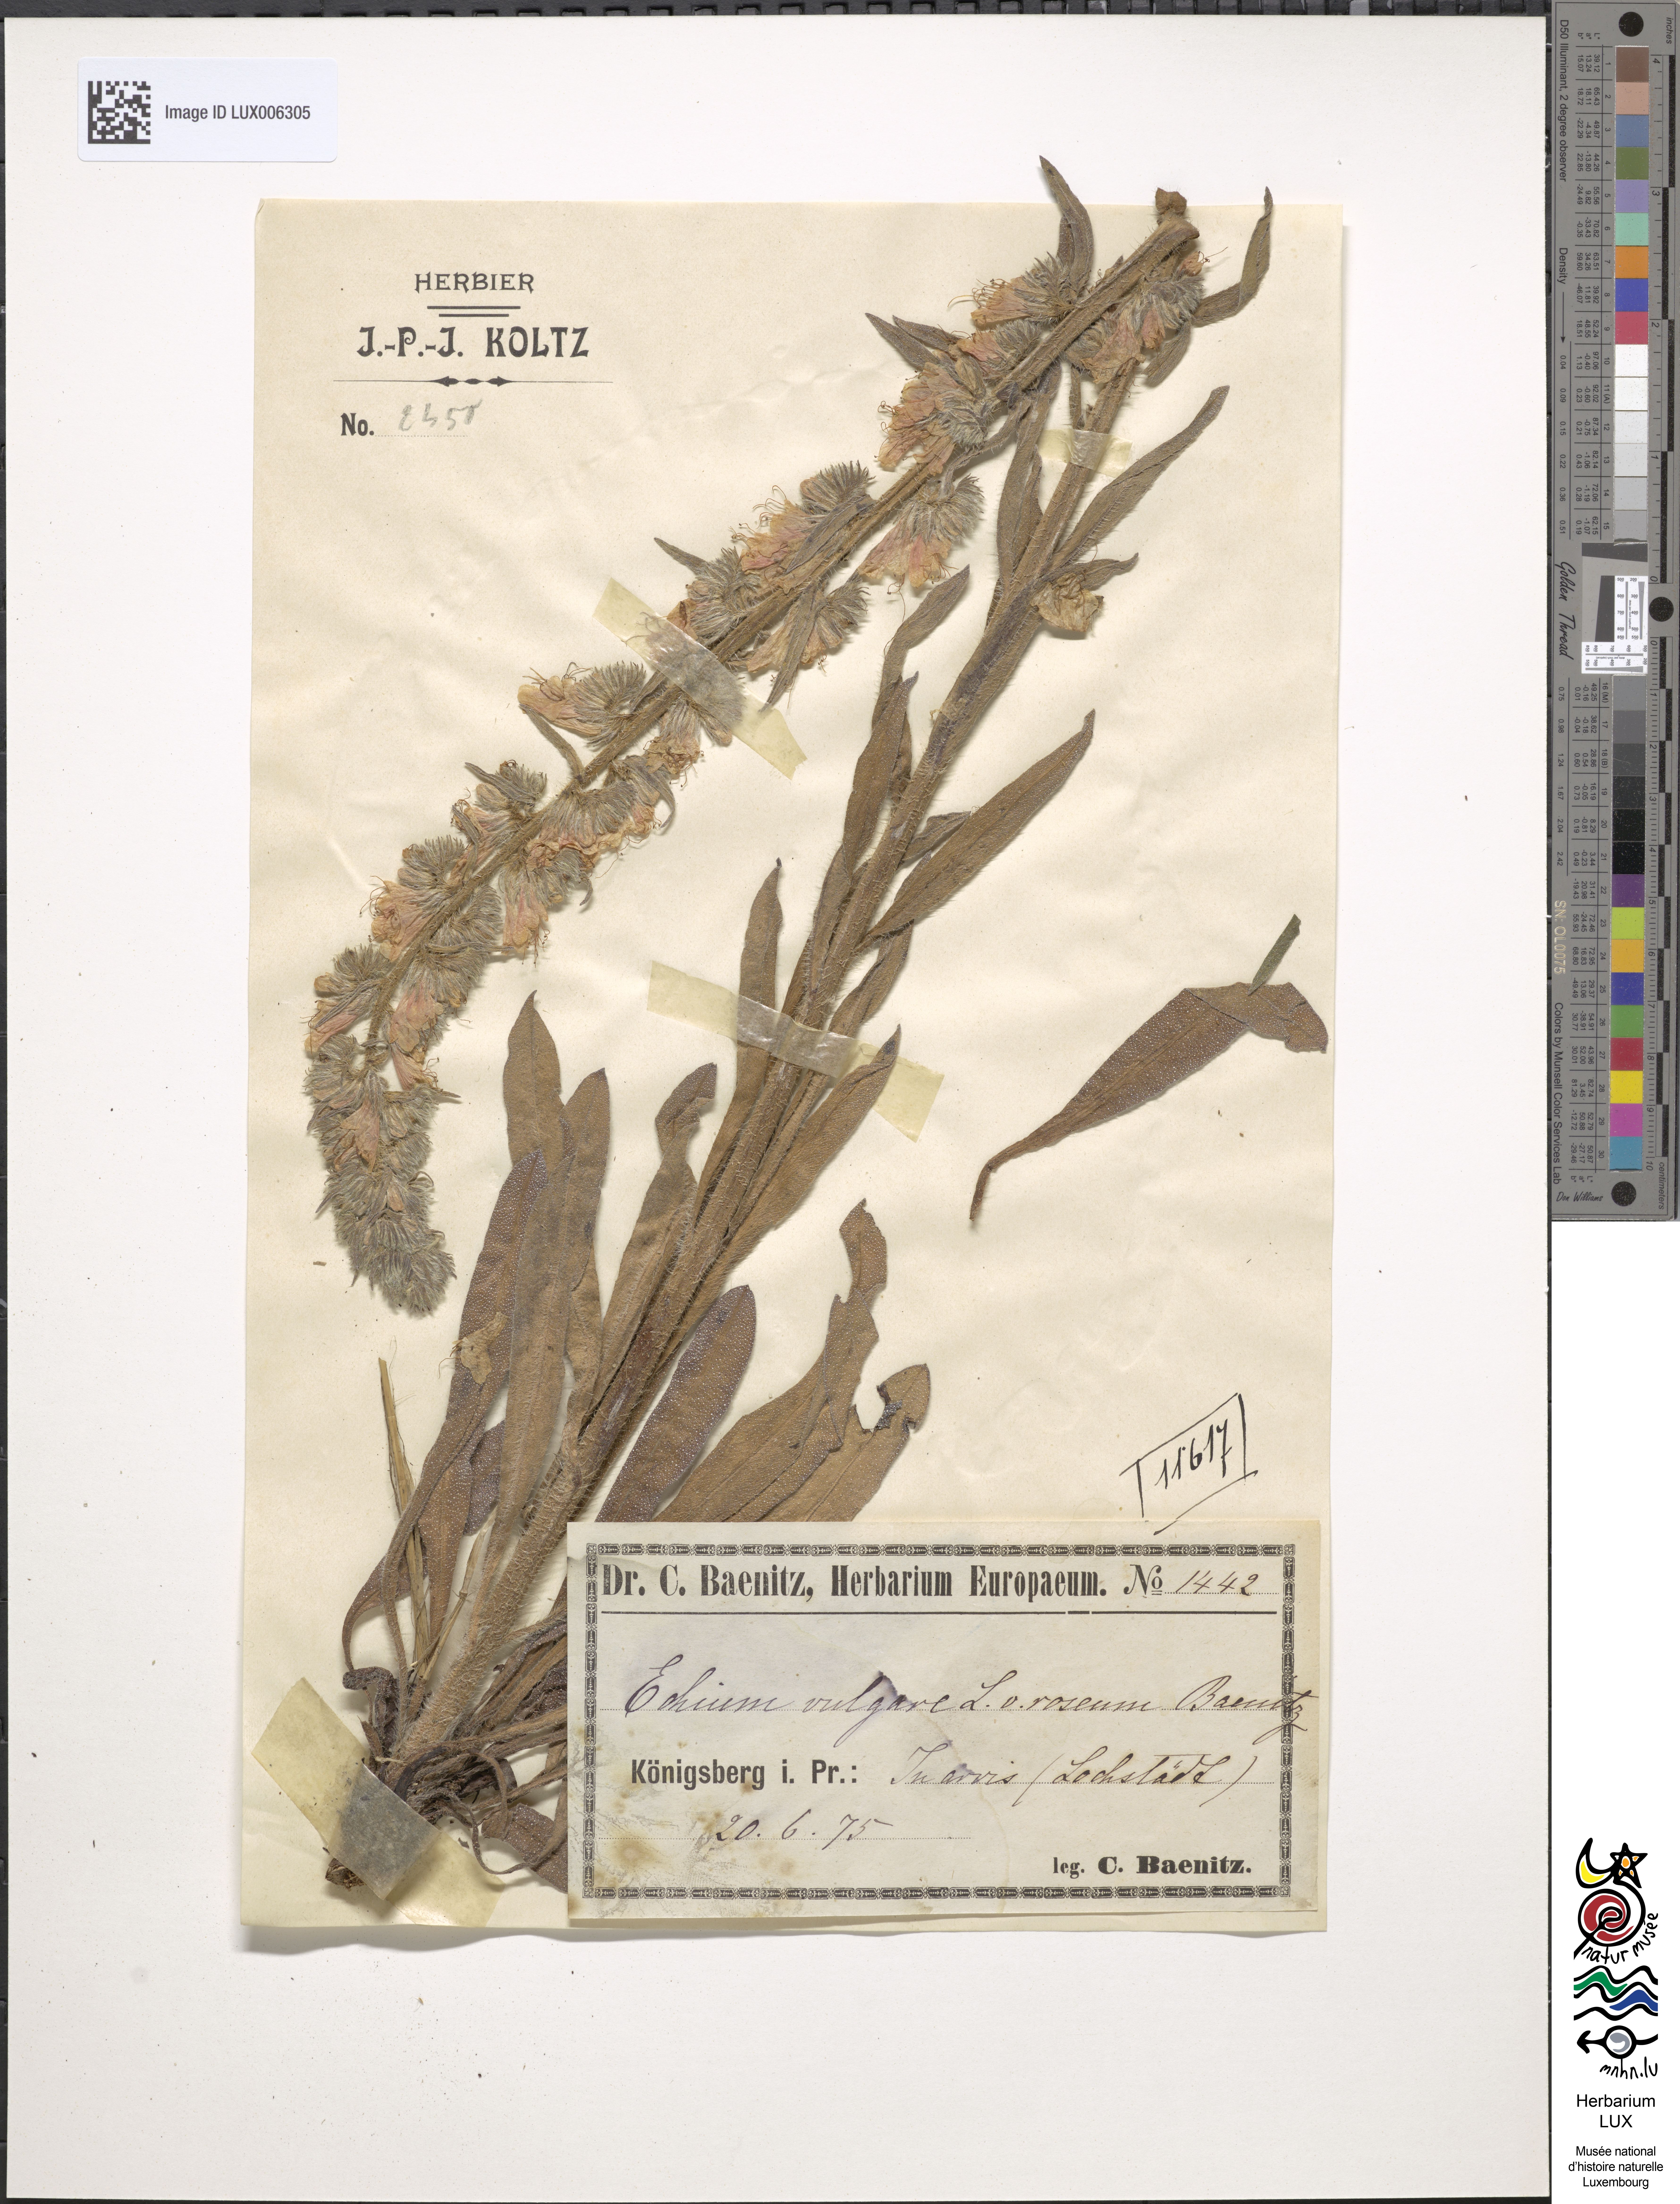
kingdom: Plantae
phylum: Tracheophyta
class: Magnoliopsida
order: Boraginales
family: Boraginaceae
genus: Echium
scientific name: Echium vulgare
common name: Common viper's bugloss
